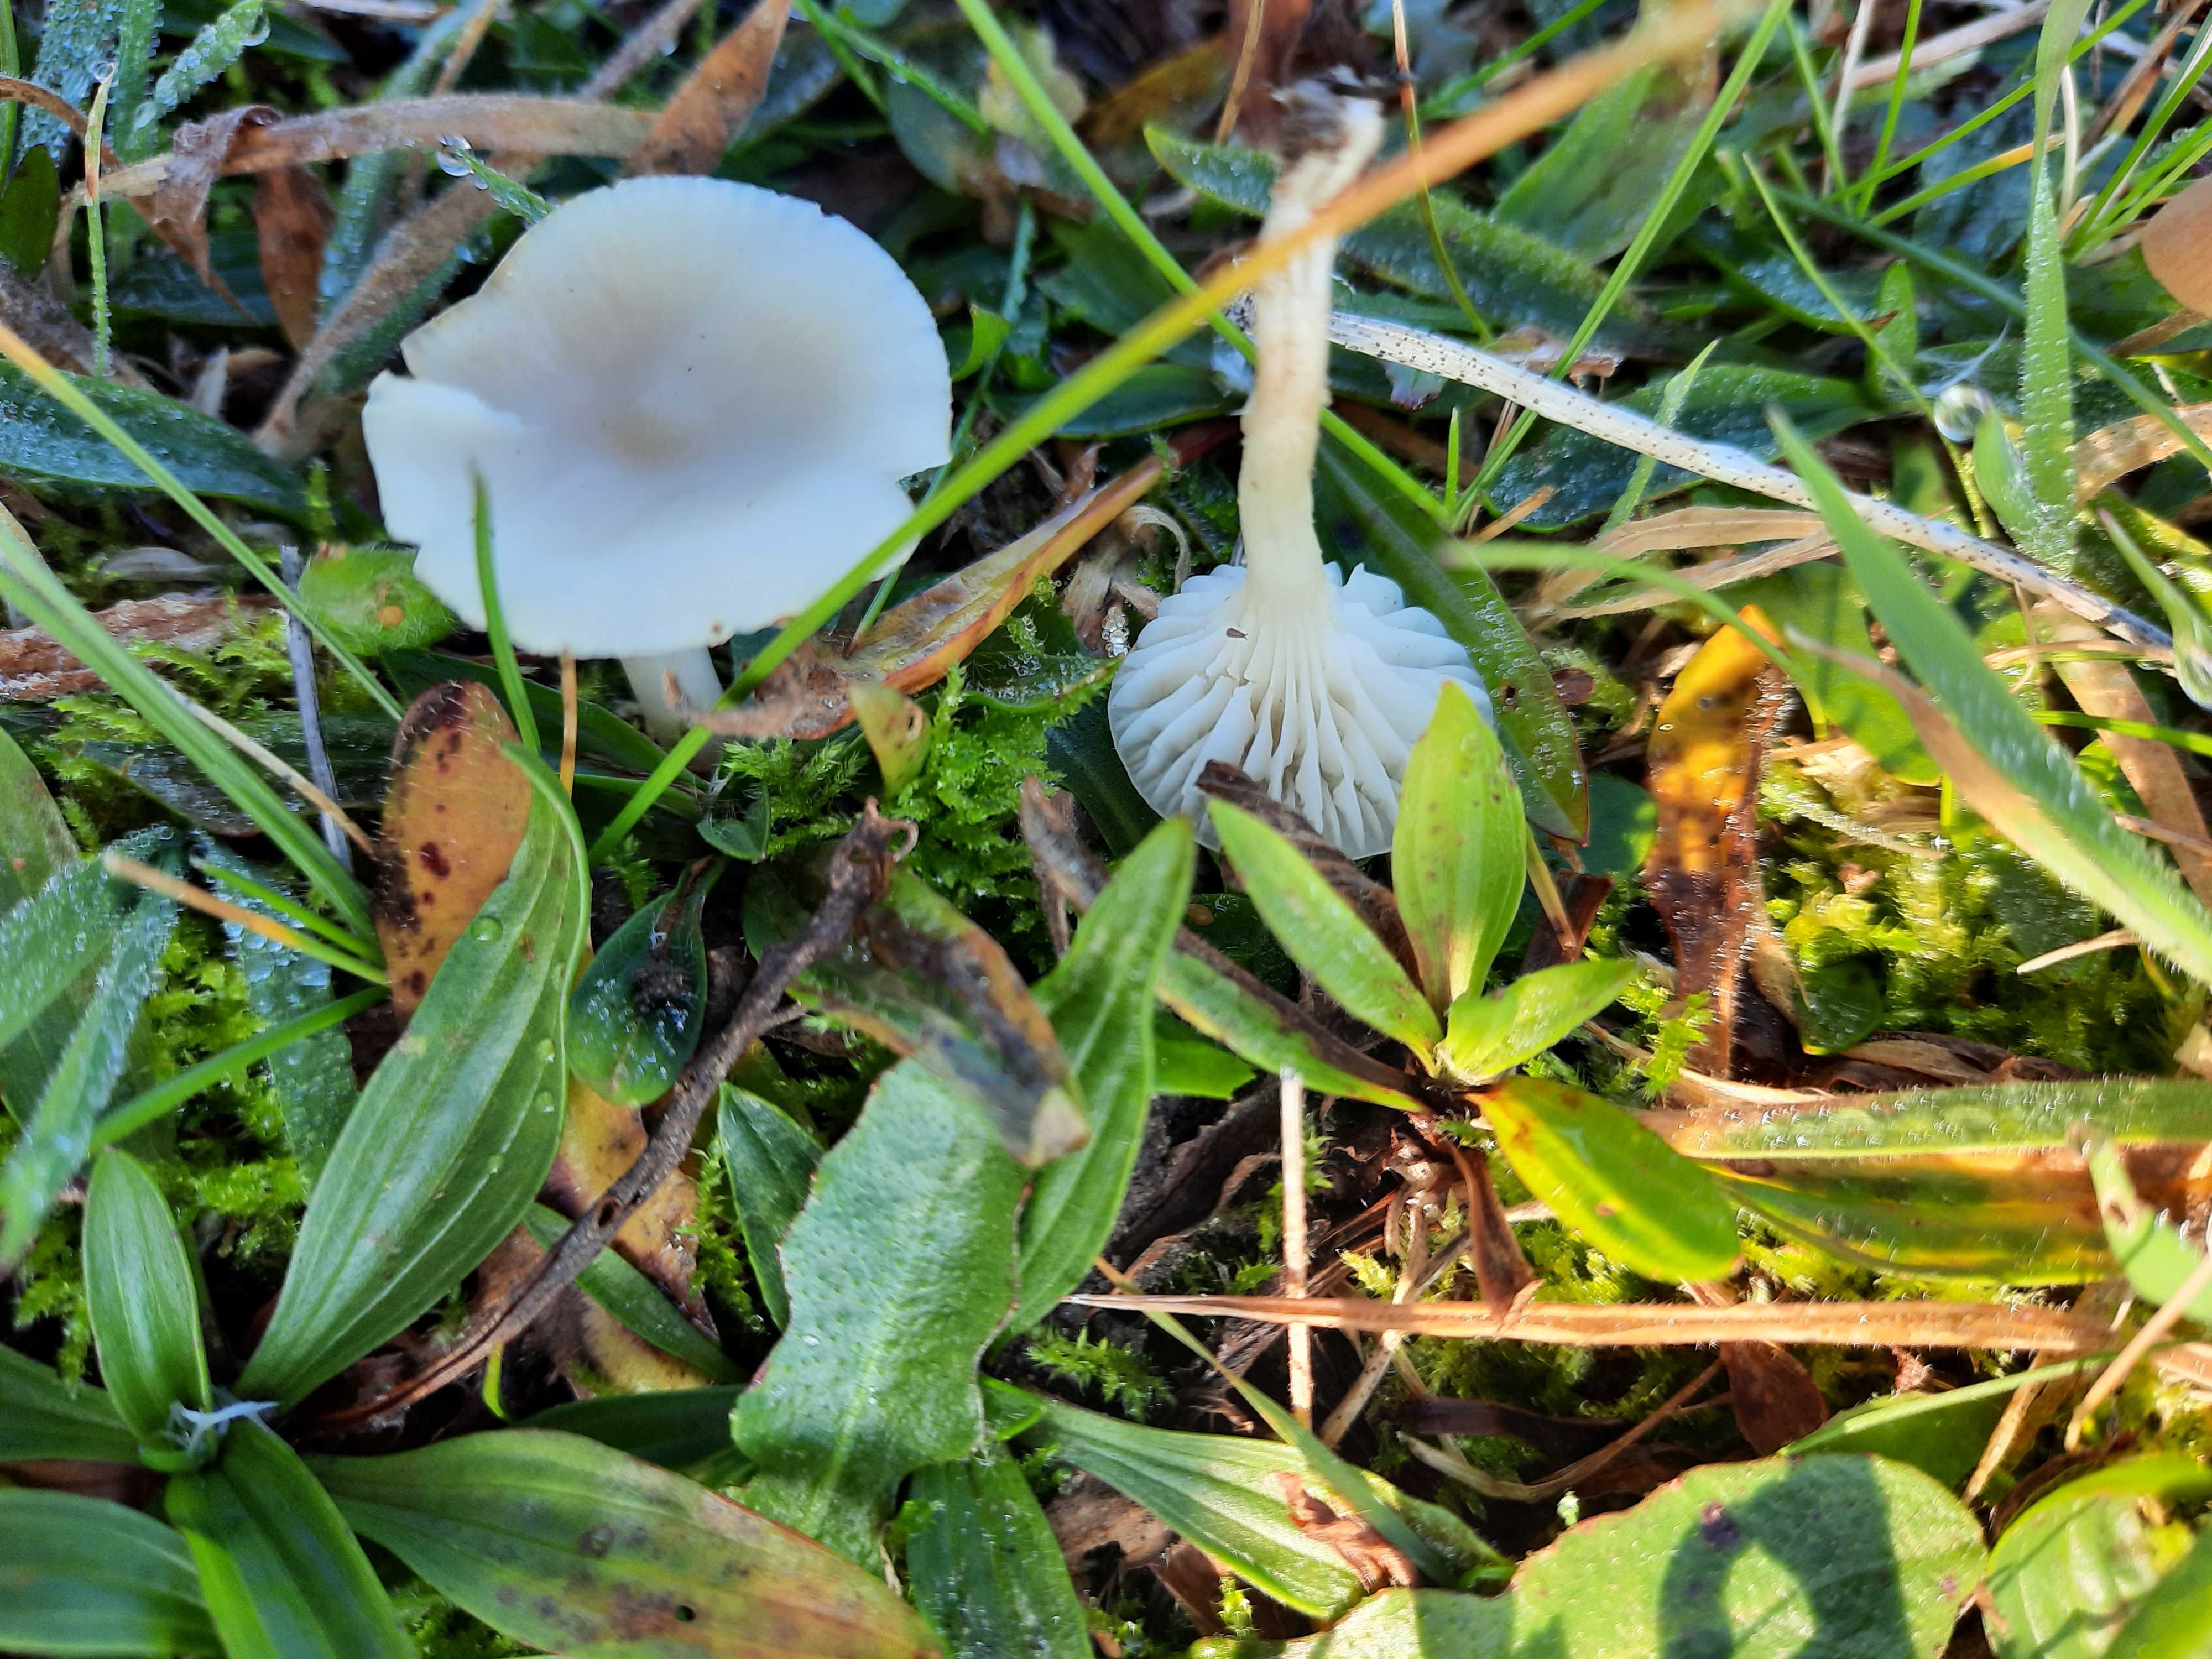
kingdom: Fungi
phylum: Basidiomycota
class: Agaricomycetes
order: Agaricales
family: Hygrophoraceae
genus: Cuphophyllus
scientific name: Cuphophyllus virgineus
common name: snehvid vokshat
